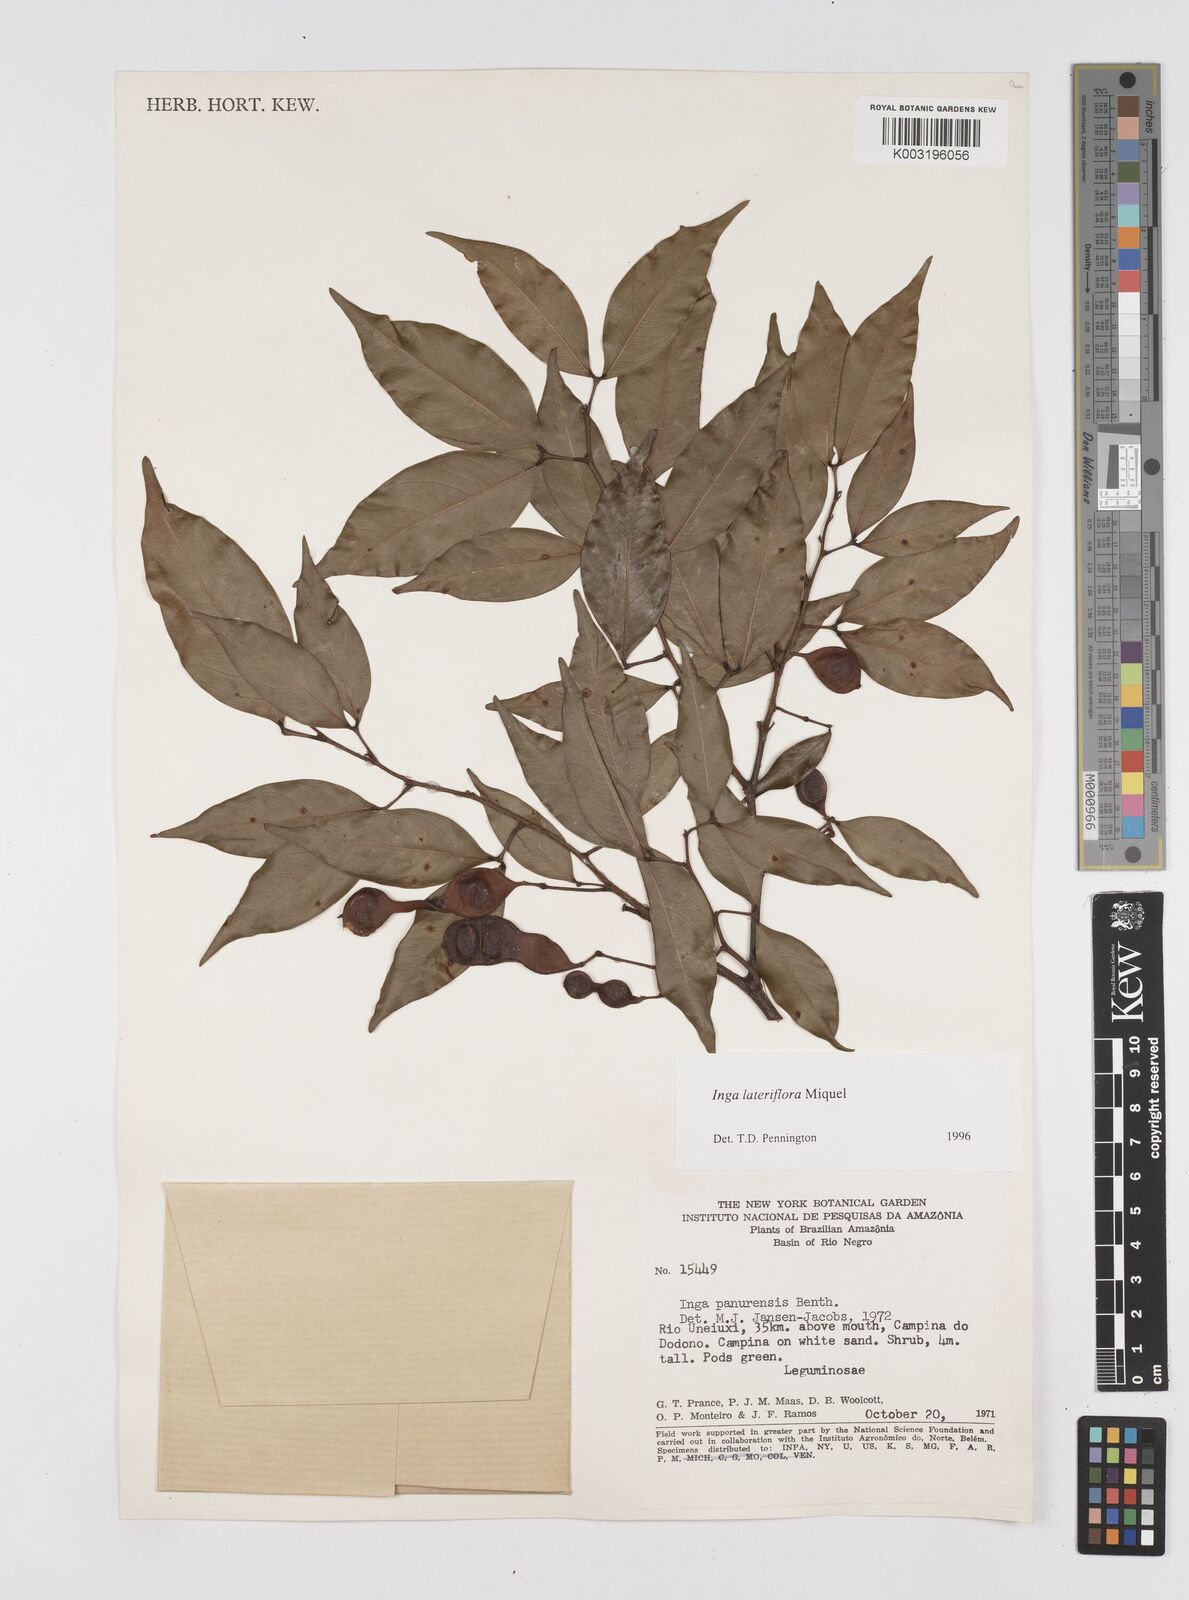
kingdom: Plantae
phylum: Tracheophyta
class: Magnoliopsida
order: Fabales
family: Fabaceae
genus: Inga
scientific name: Inga lateriflora
